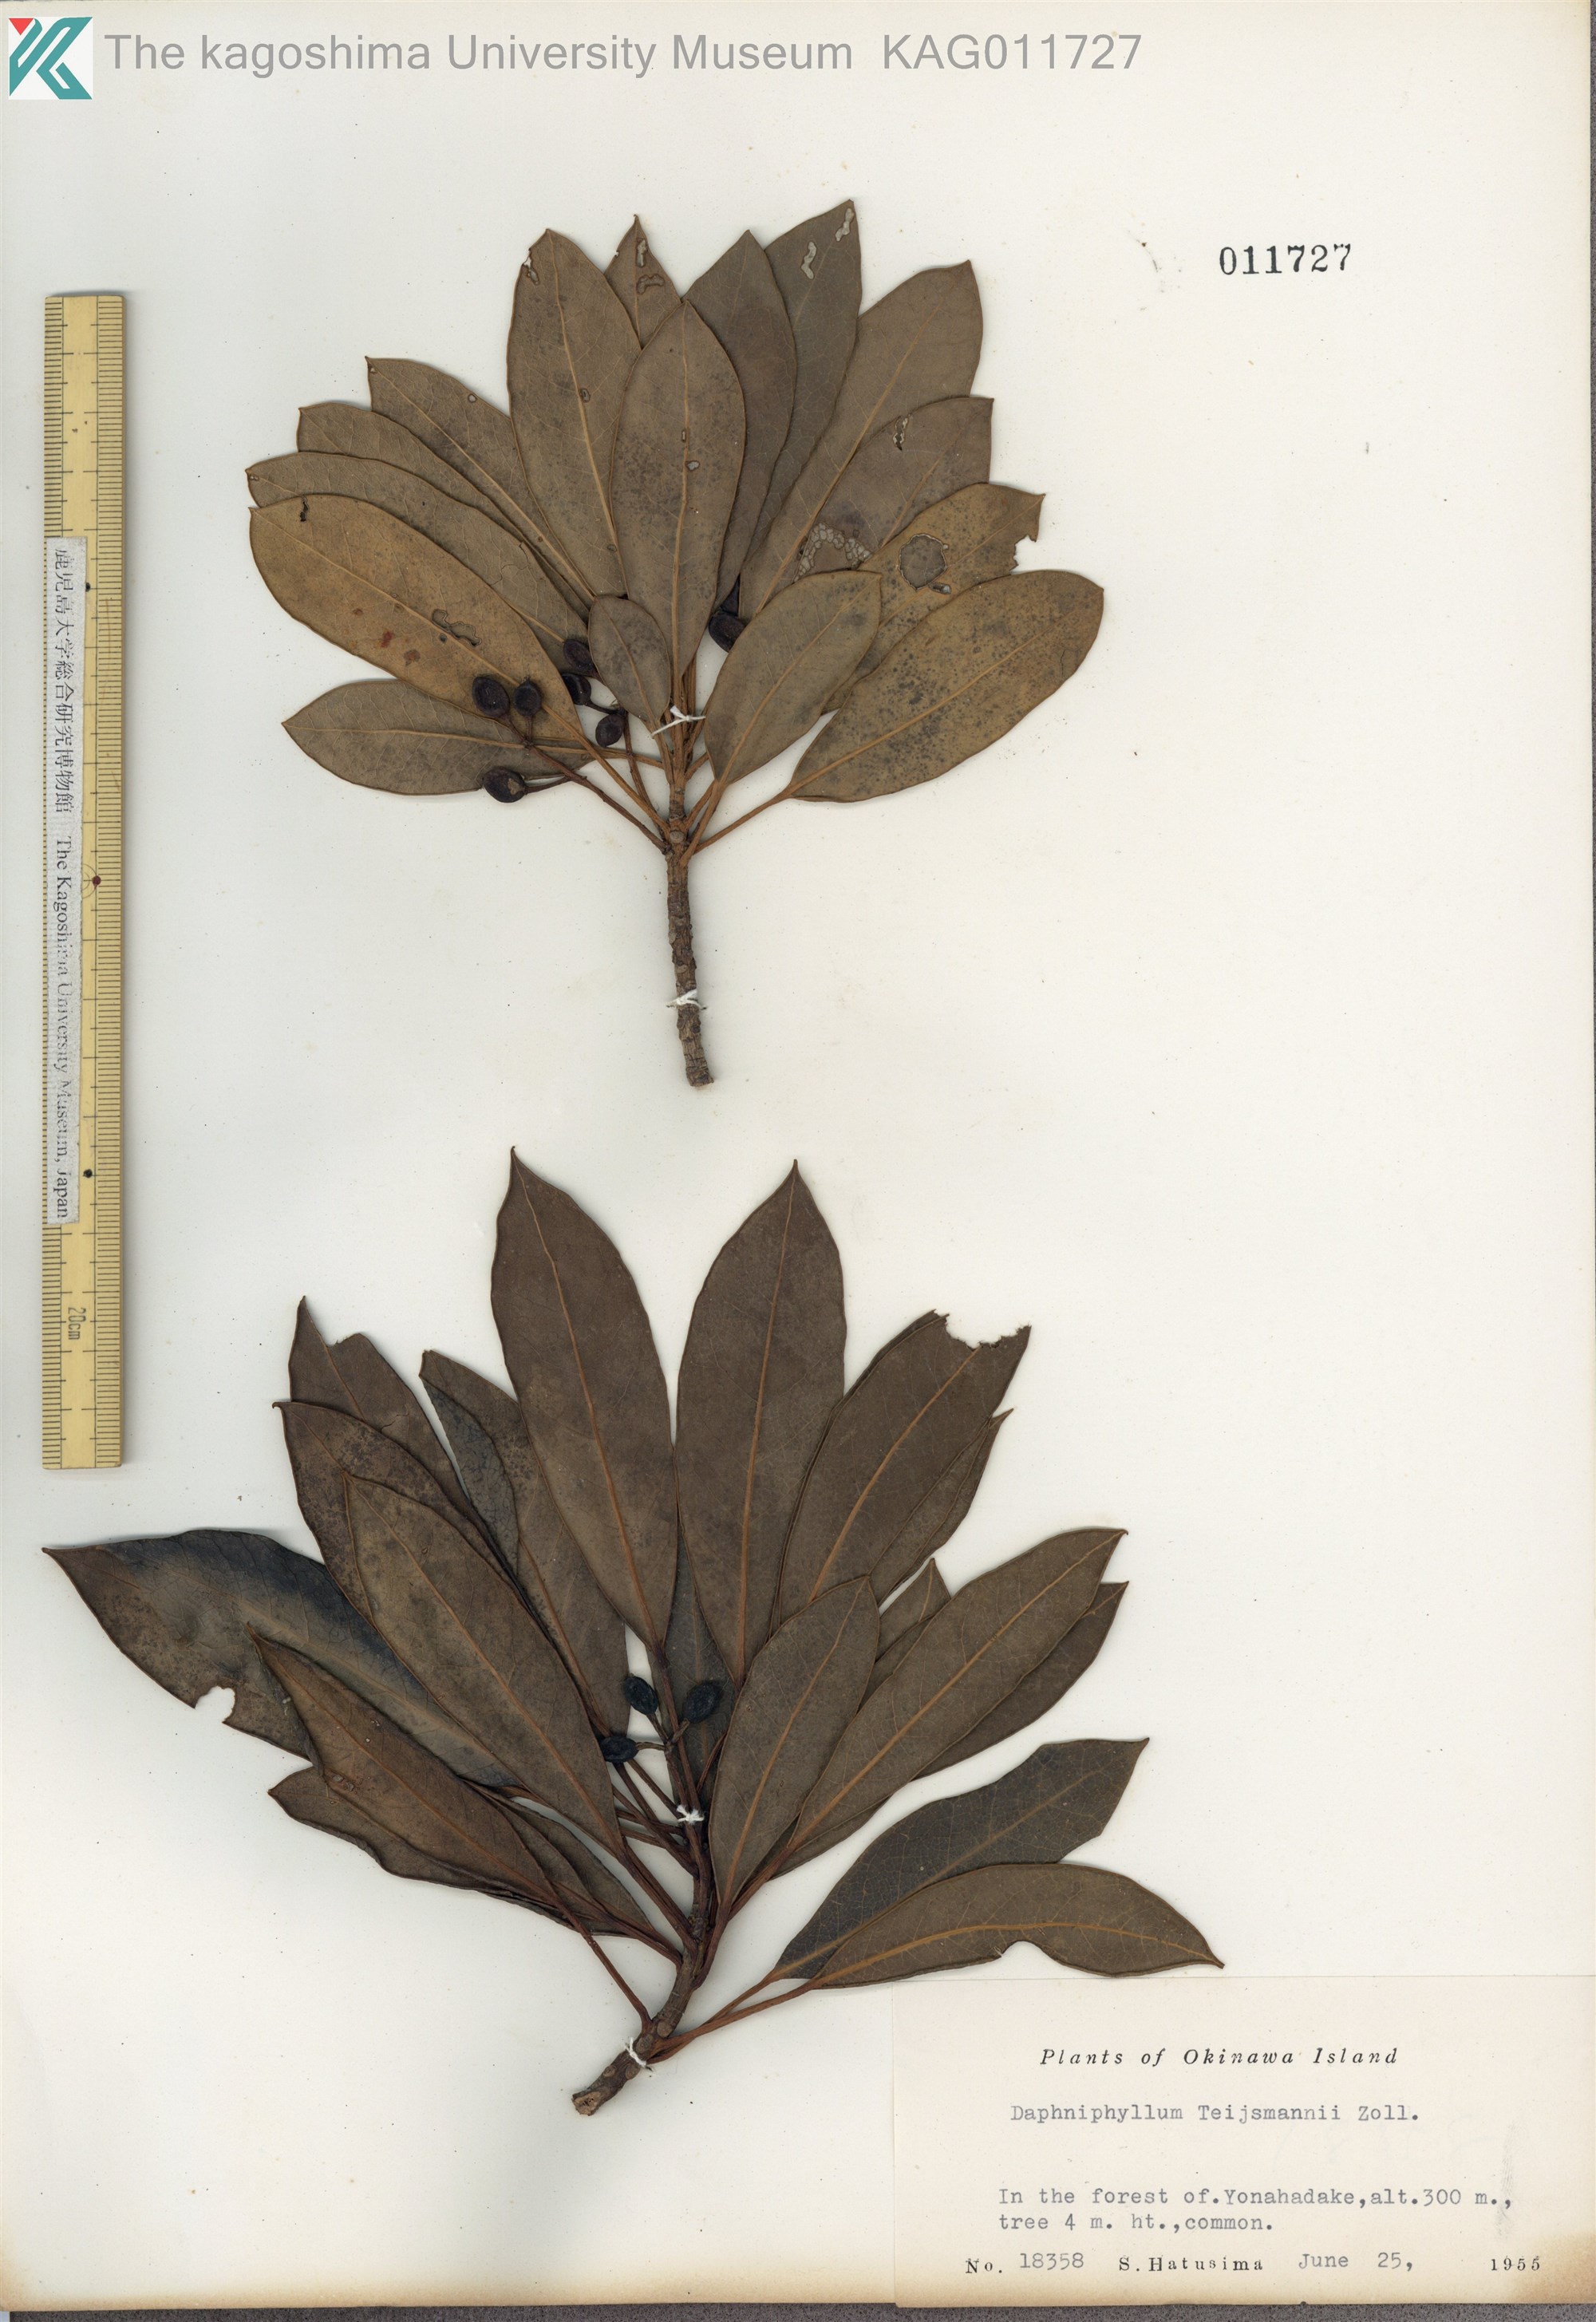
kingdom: Plantae
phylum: Tracheophyta
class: Magnoliopsida
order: Saxifragales
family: Daphniphyllaceae
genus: Daphniphyllum
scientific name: Daphniphyllum teijsmannii
